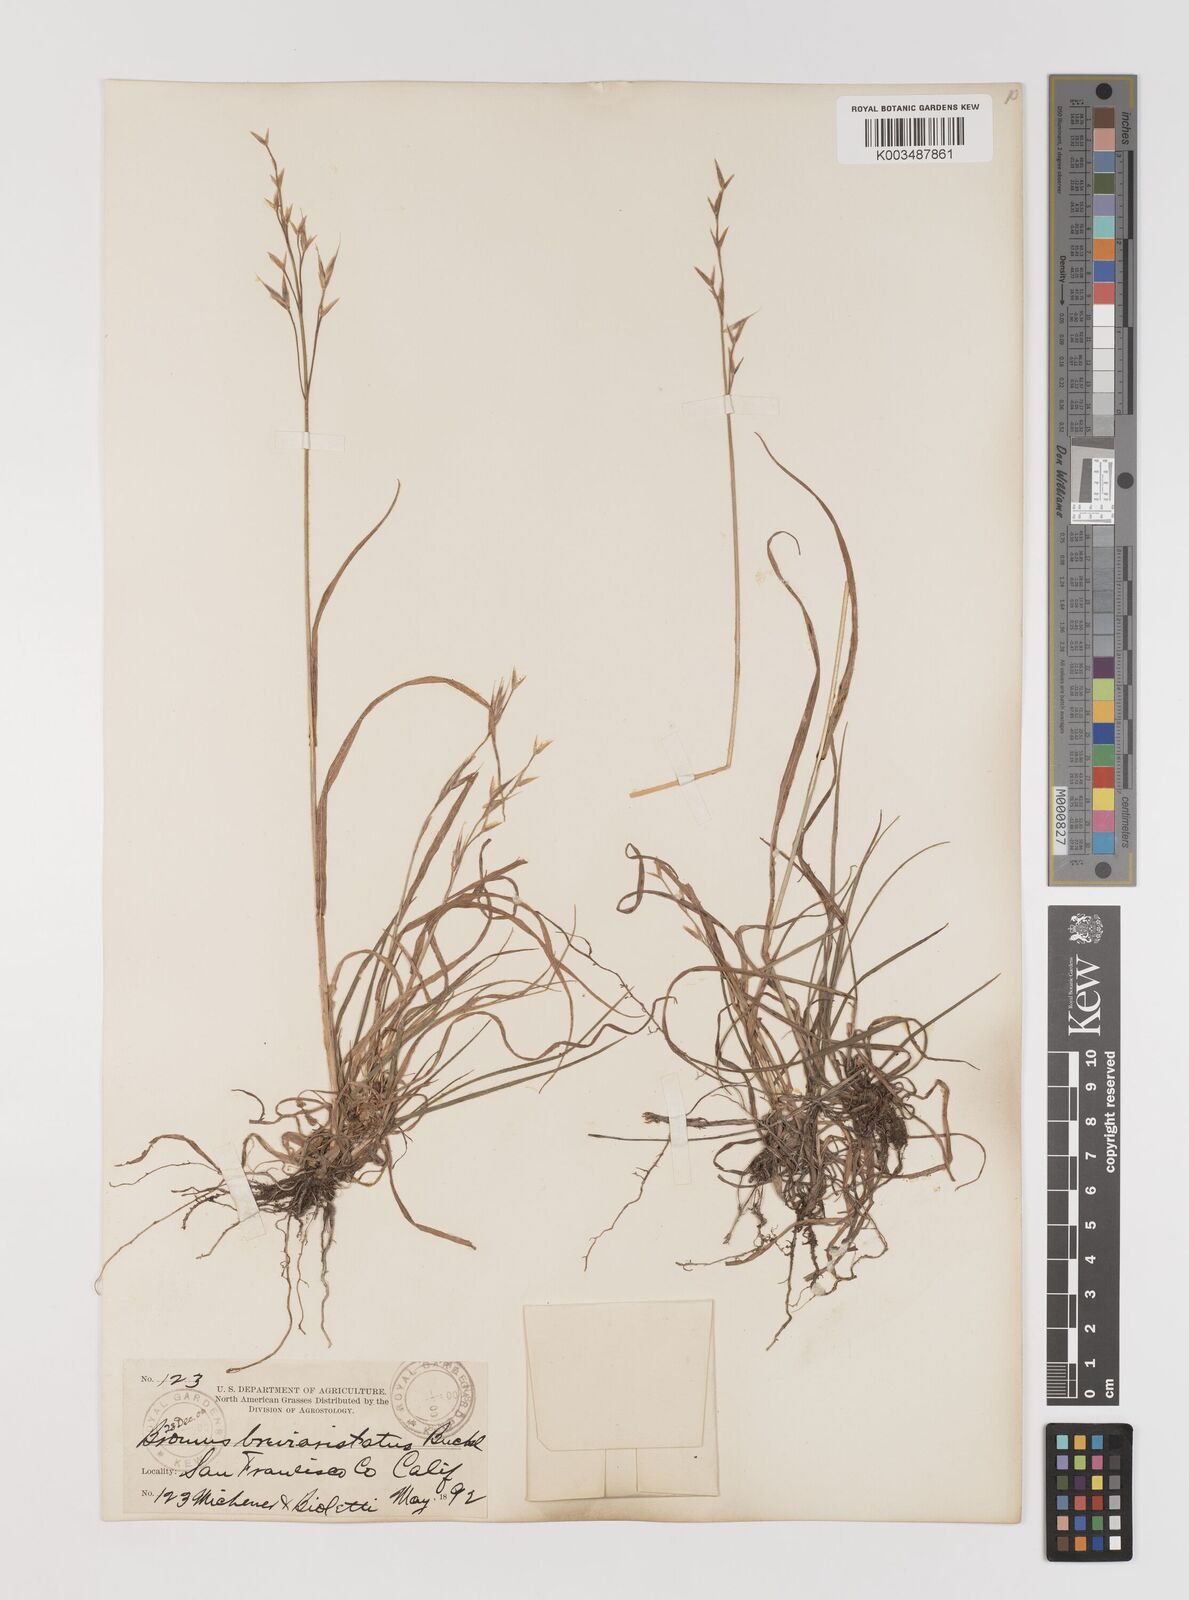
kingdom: Plantae
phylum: Tracheophyta
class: Liliopsida
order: Poales
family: Poaceae
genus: Bromus
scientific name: Bromus catharticus
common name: Rescuegrass
